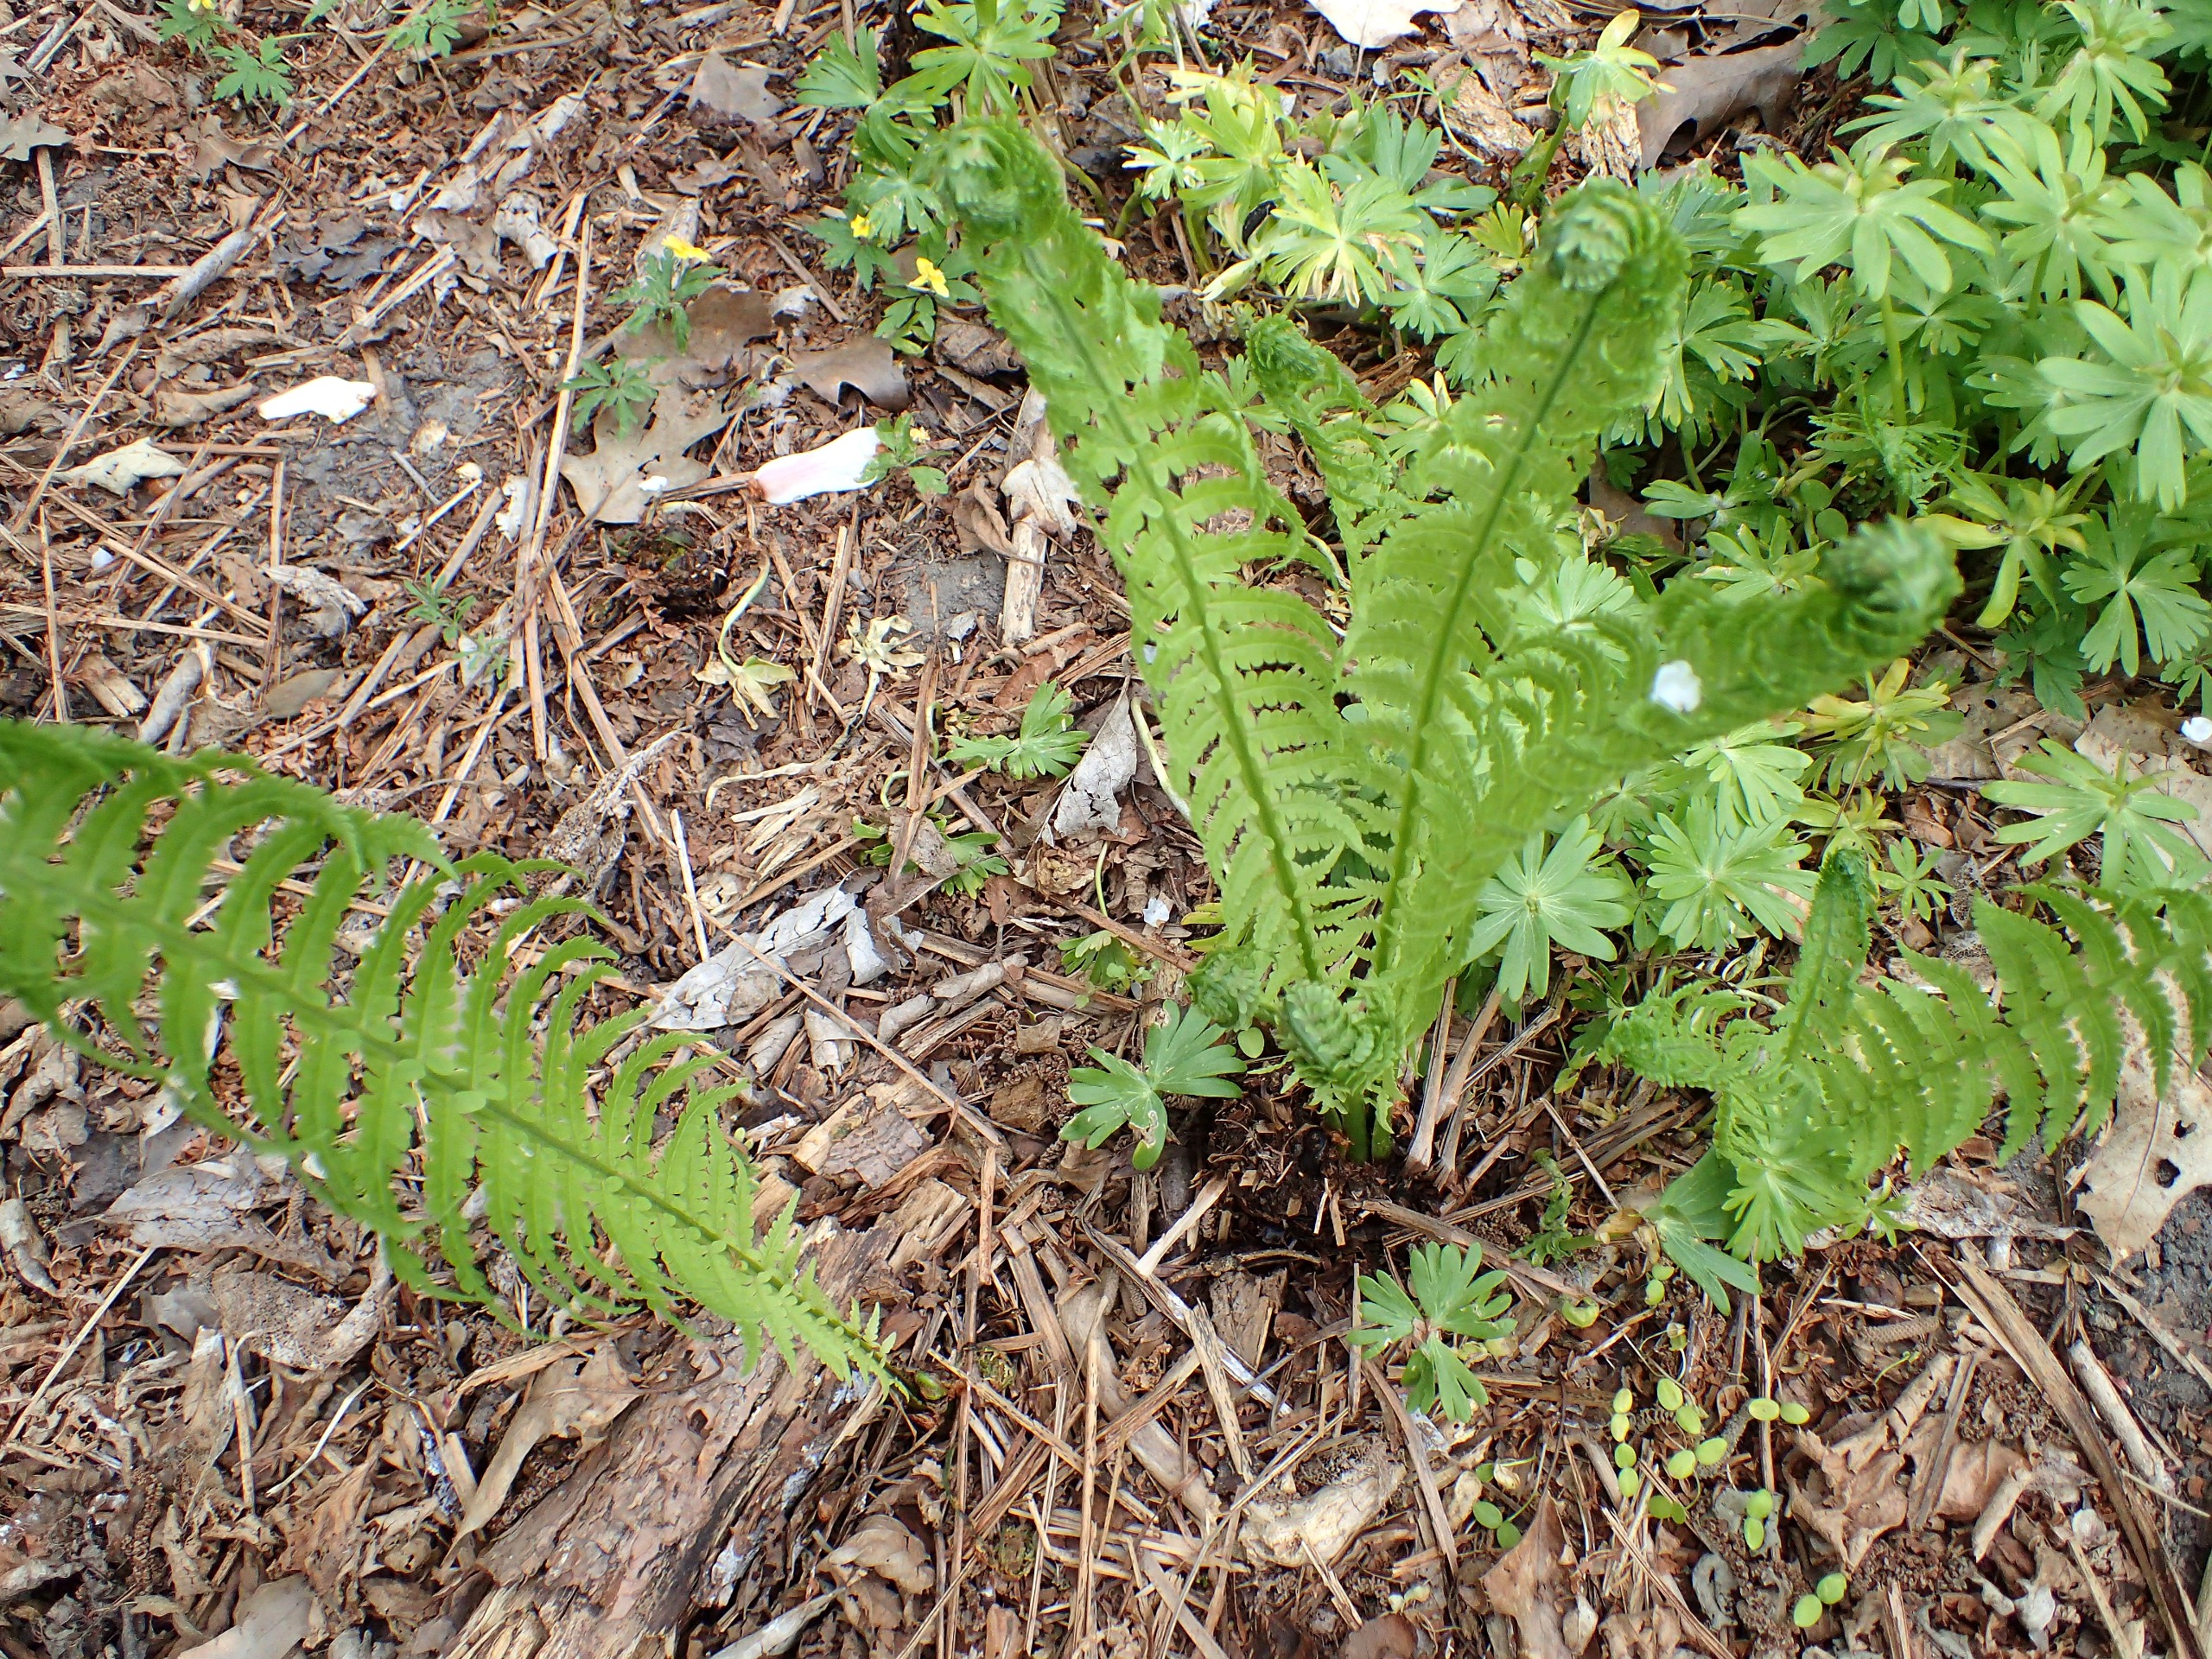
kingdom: Plantae
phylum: Tracheophyta
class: Polypodiopsida
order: Polypodiales
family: Onocleaceae
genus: Matteuccia
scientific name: Matteuccia struthiopteris
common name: Strudsvinge
